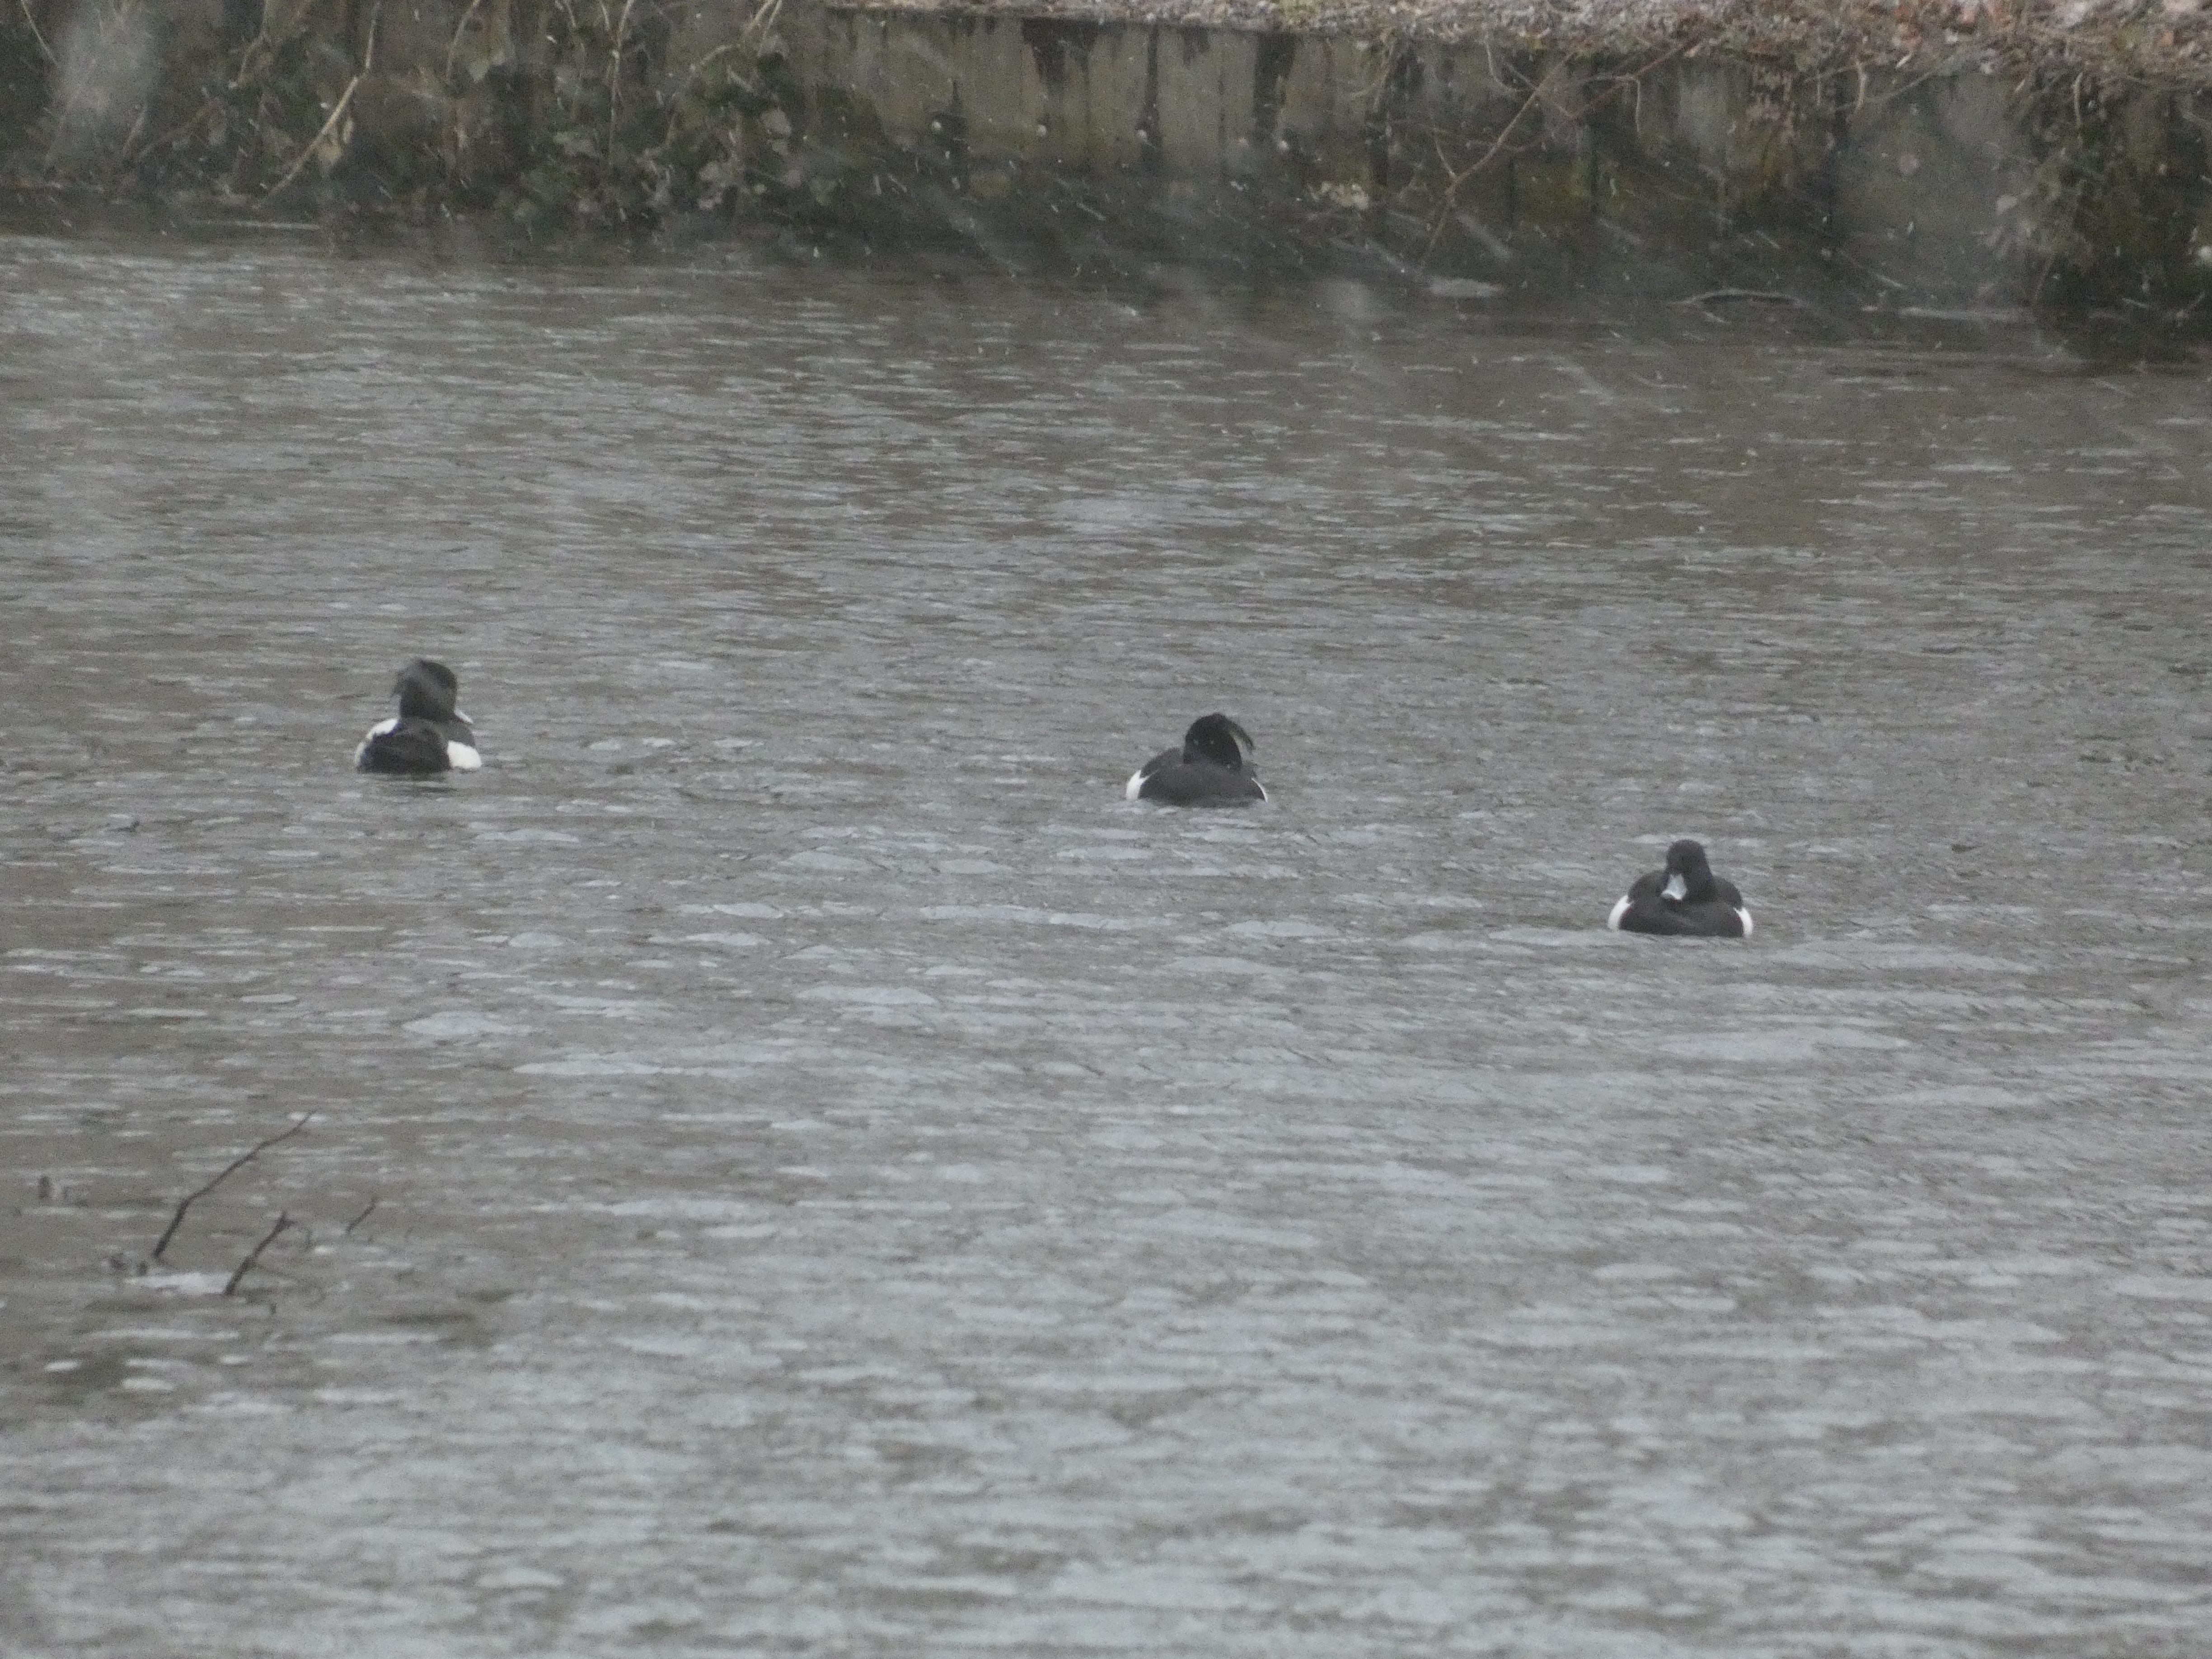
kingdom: Animalia
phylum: Chordata
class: Aves
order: Anseriformes
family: Anatidae
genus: Aythya
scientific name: Aythya fuligula
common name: Troldand
